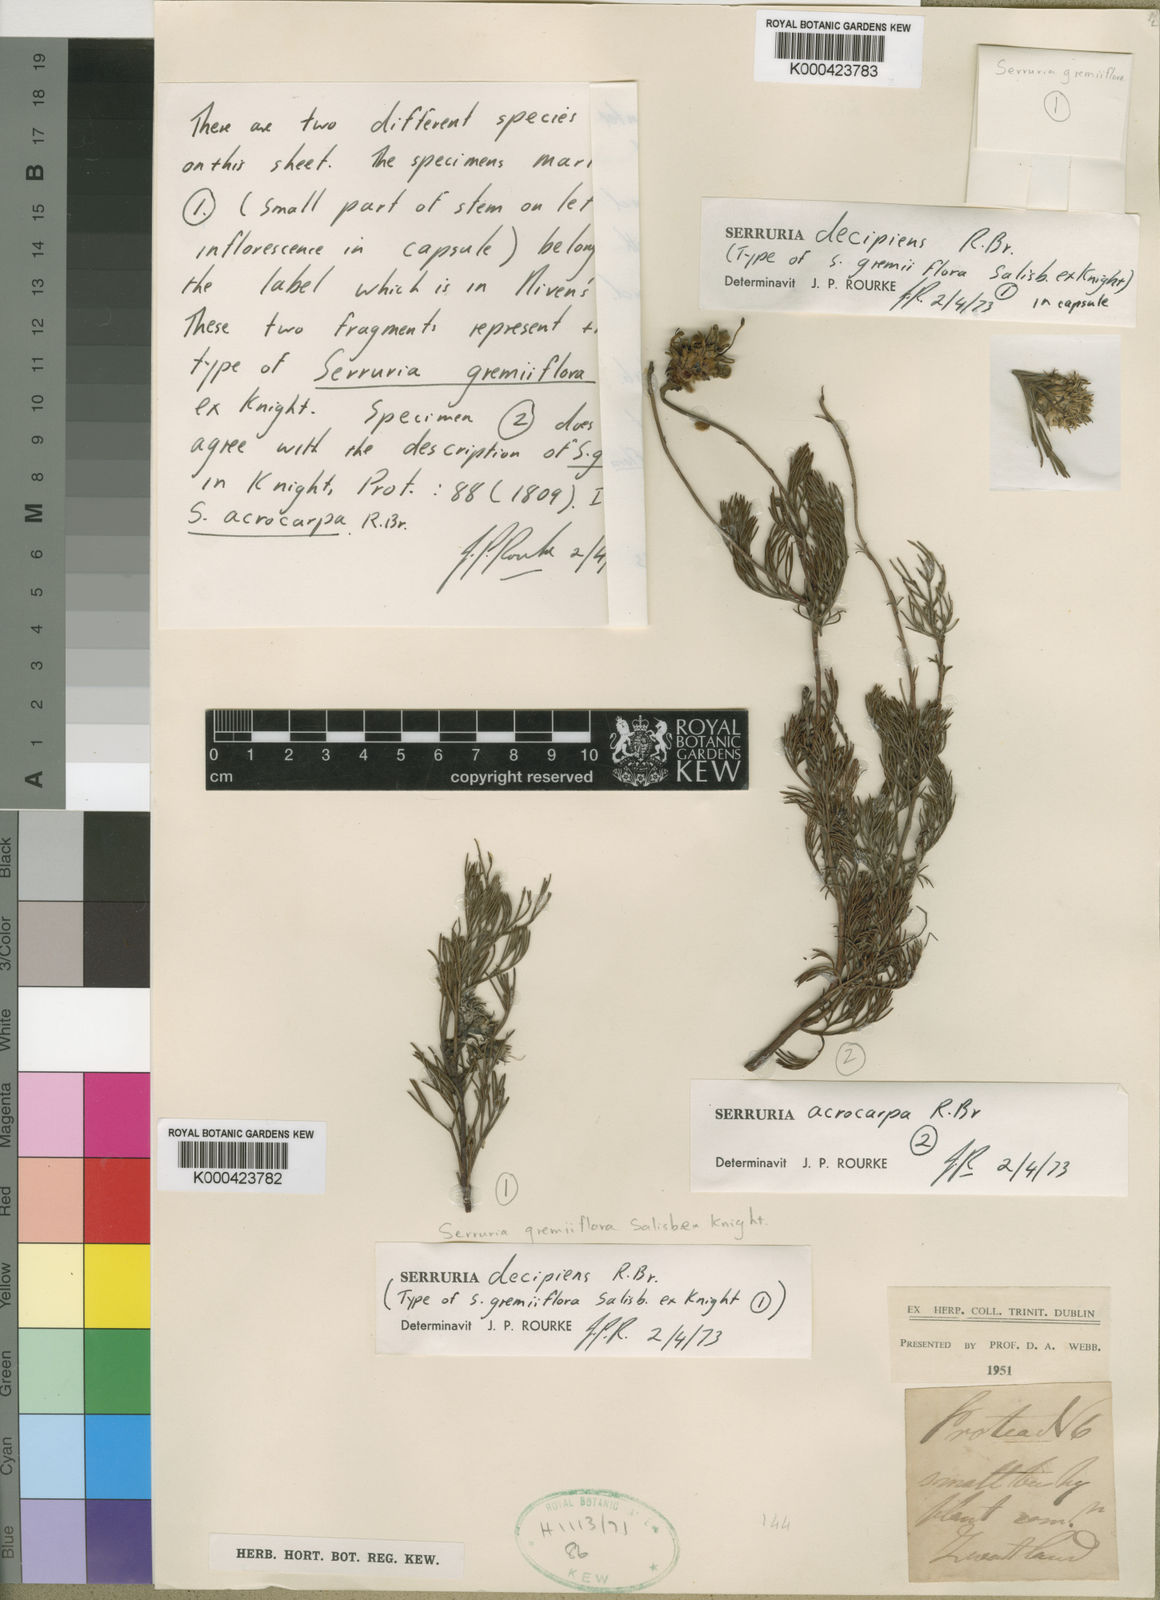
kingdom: Plantae
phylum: Tracheophyta
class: Magnoliopsida
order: Proteales
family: Proteaceae
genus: Serruria
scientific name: Serruria acrocarpa
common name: Common rootstock spiderhead
